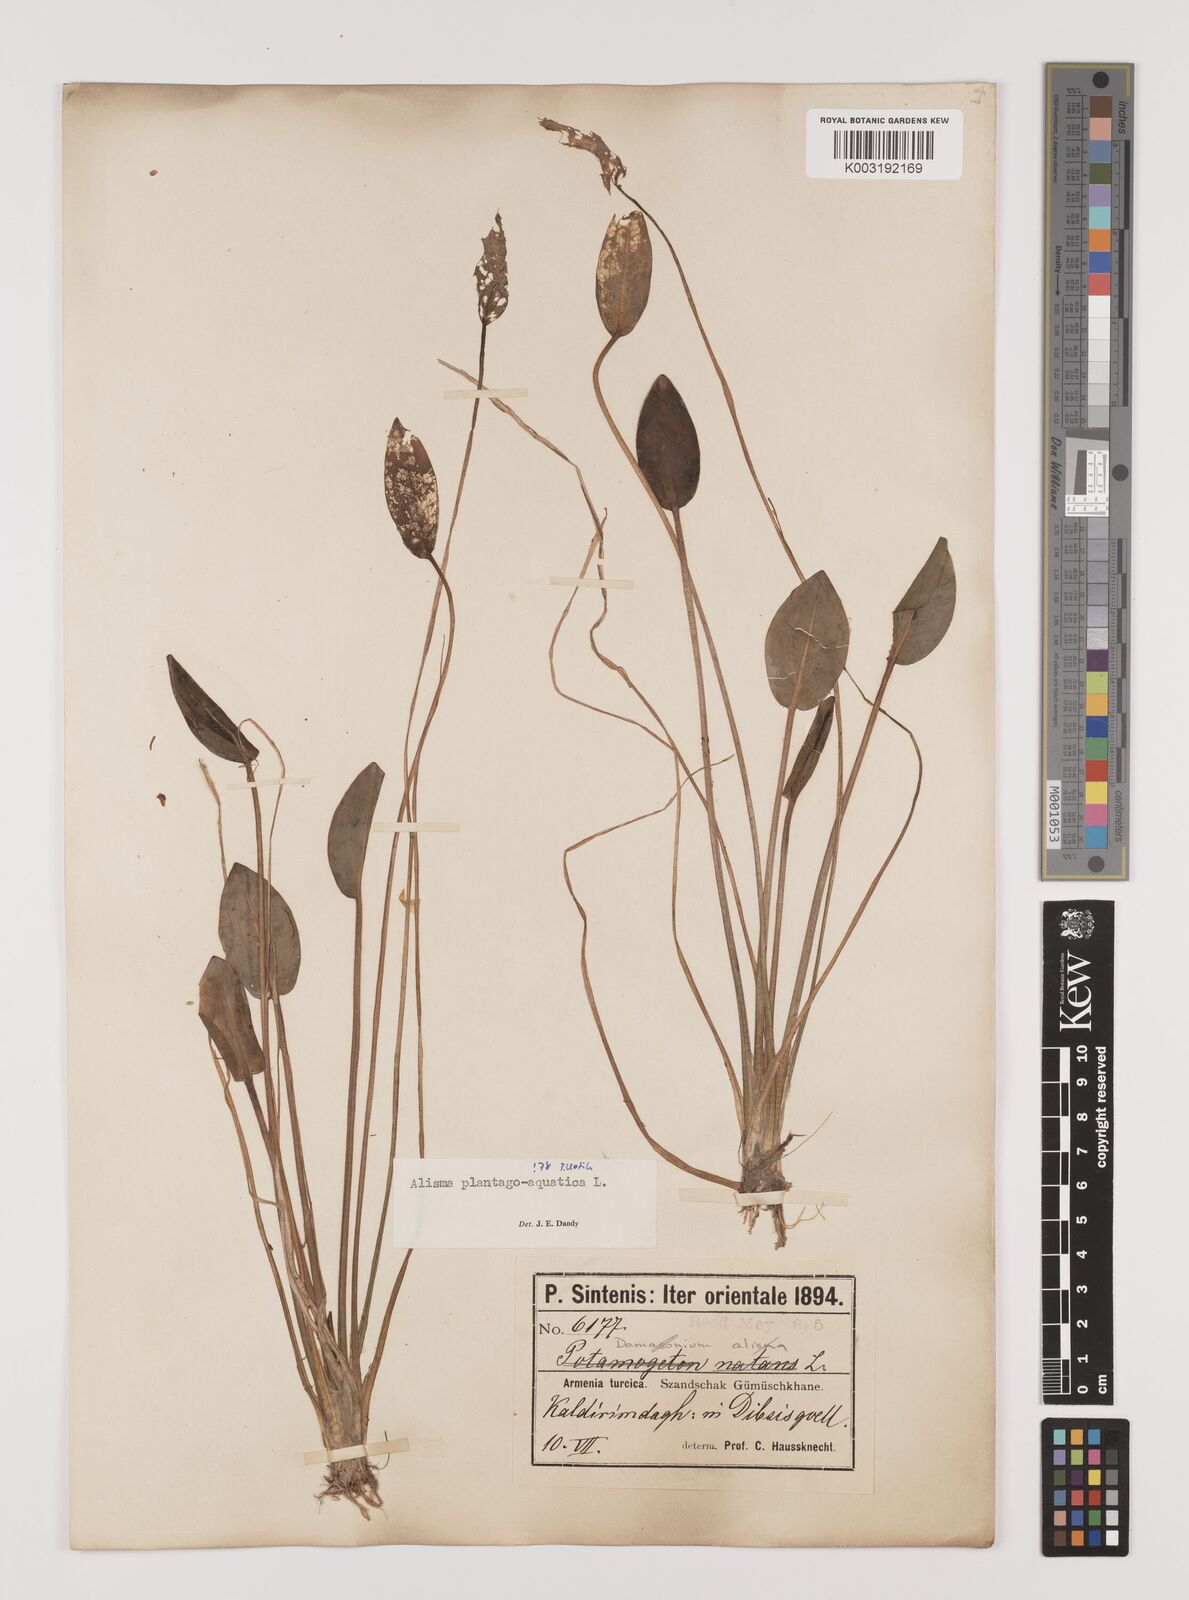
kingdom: Plantae
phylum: Tracheophyta
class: Liliopsida
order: Alismatales
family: Alismataceae
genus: Alisma
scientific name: Alisma plantago-aquatica
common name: Water-plantain
